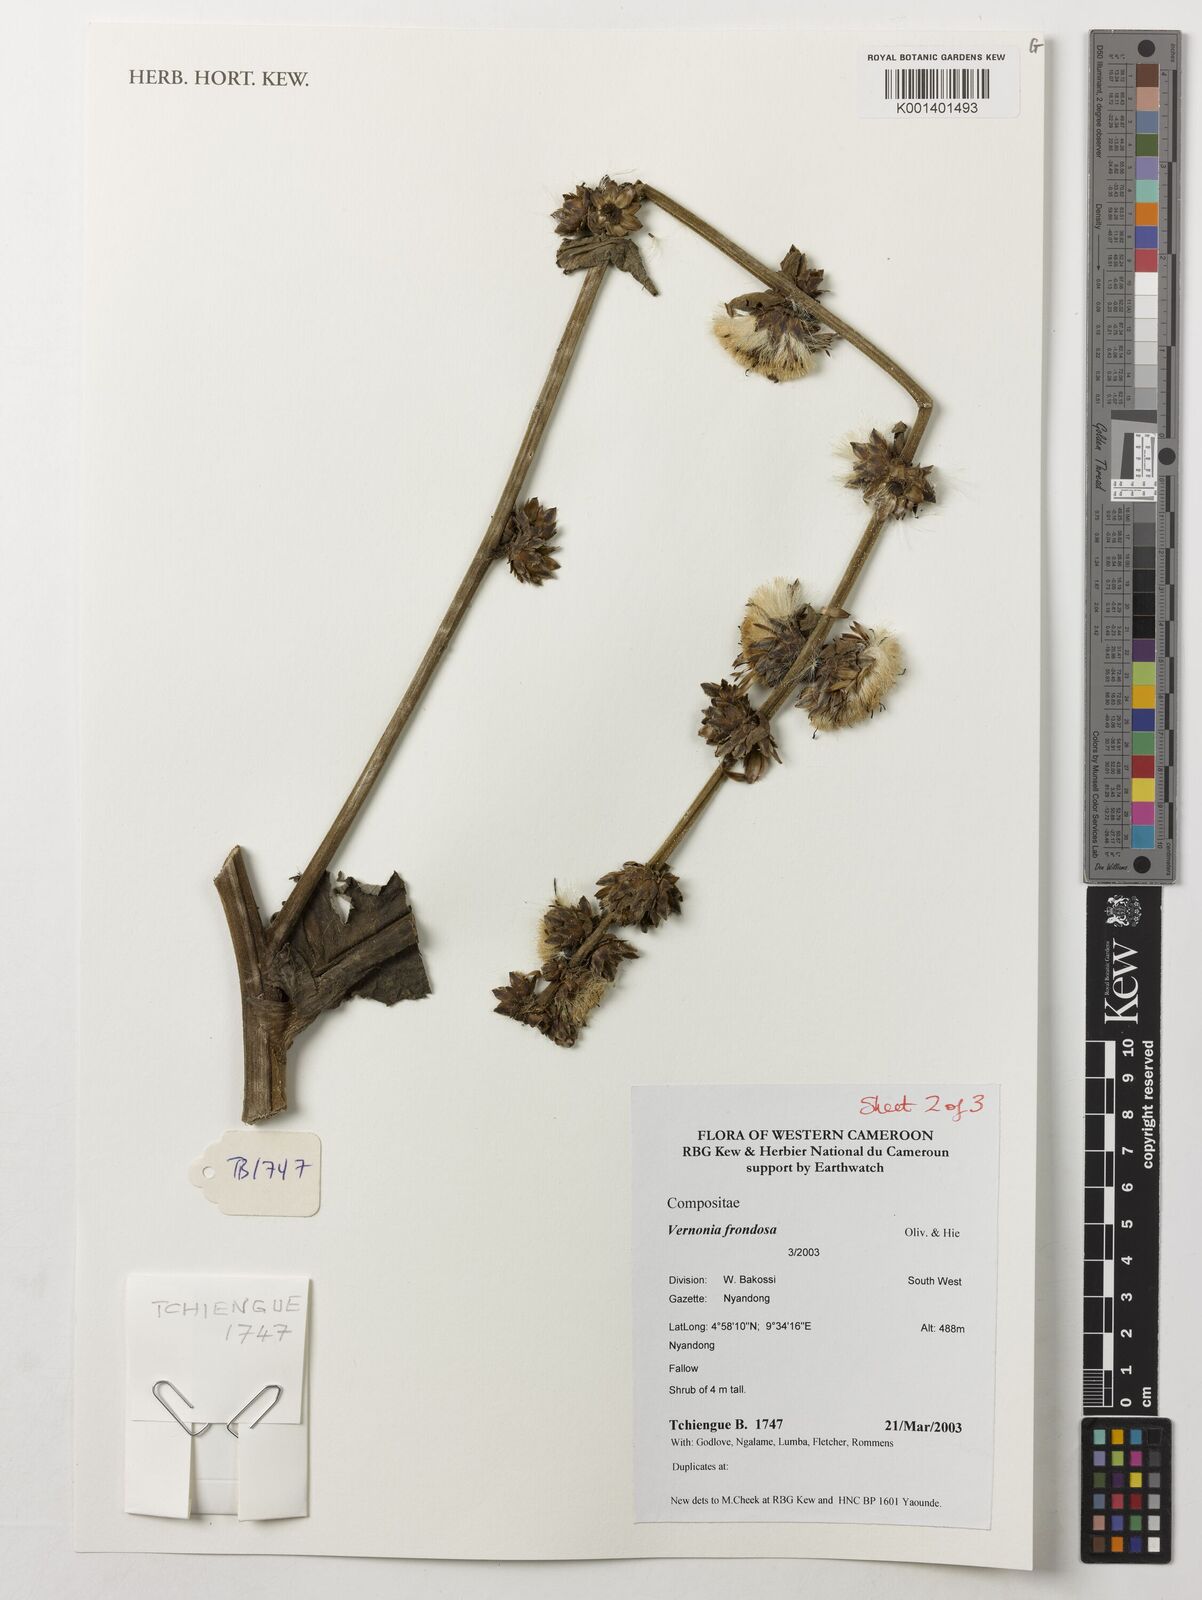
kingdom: Plantae
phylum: Tracheophyta
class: Magnoliopsida
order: Asterales
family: Asteraceae
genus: Brenandendron
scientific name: Brenandendron frondosum
